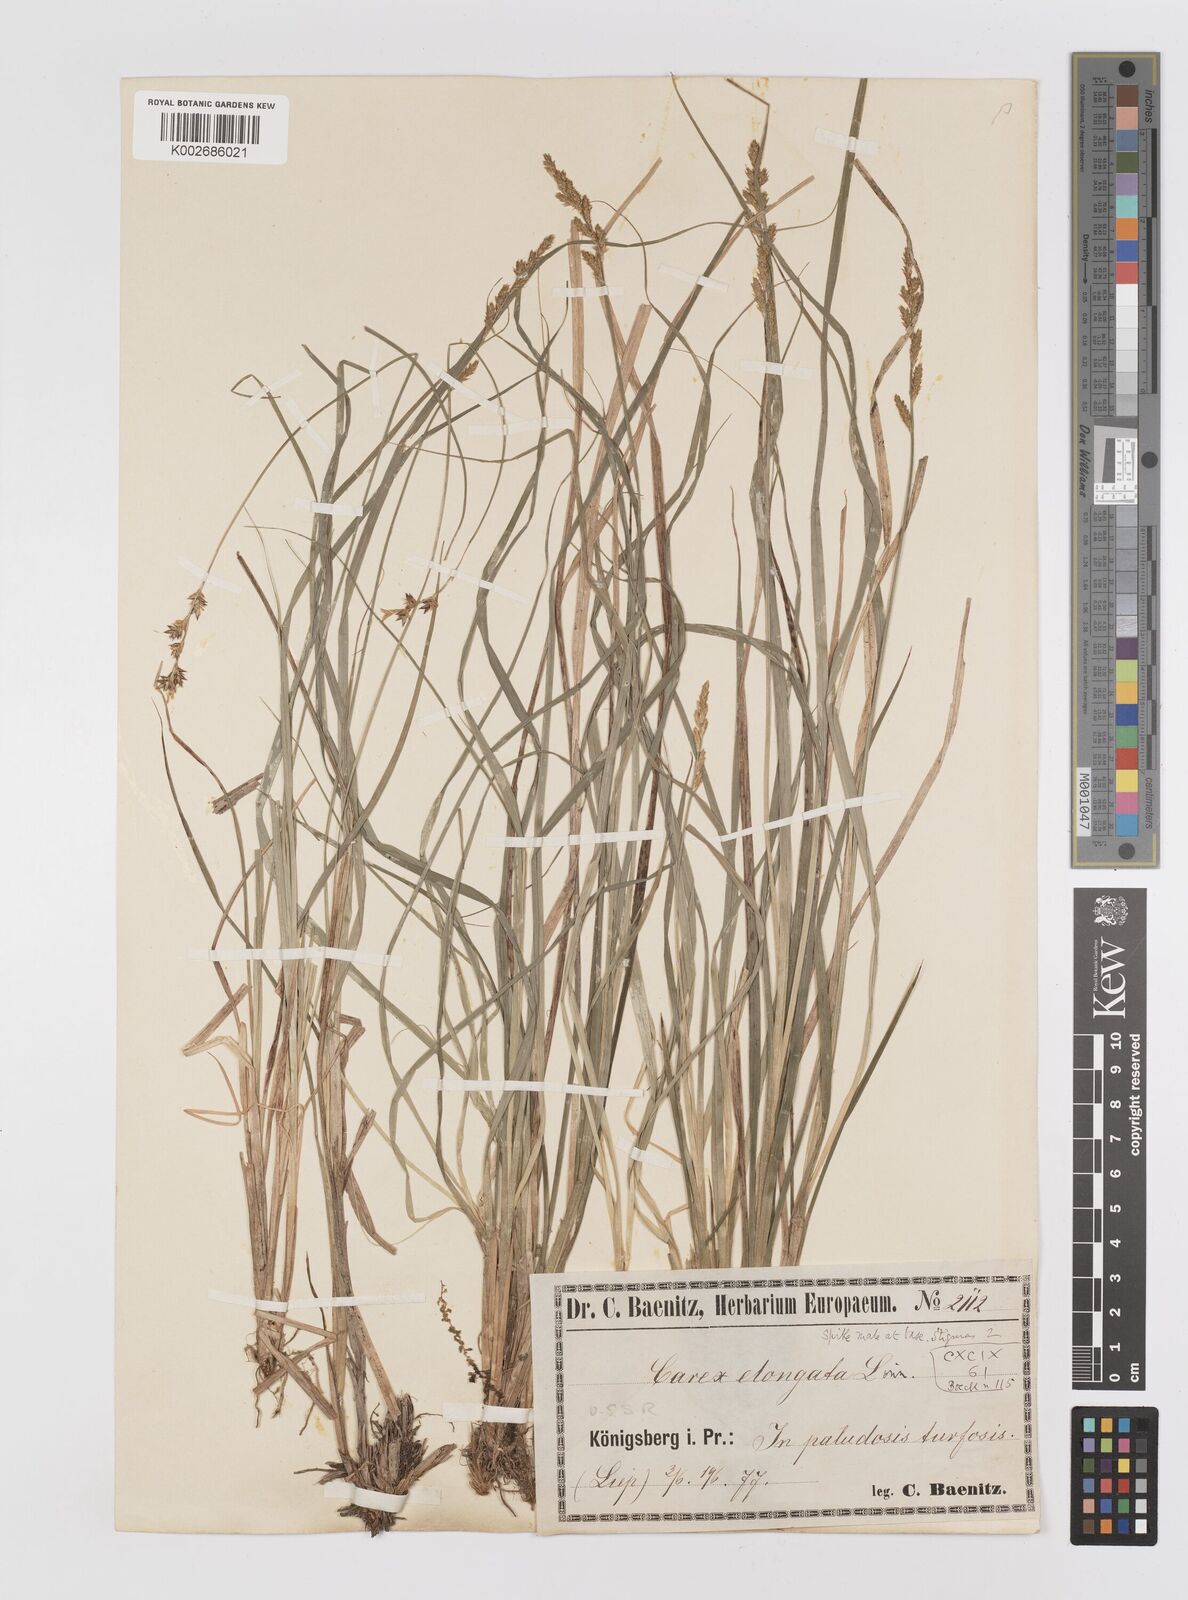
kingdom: Plantae
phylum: Tracheophyta
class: Liliopsida
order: Poales
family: Cyperaceae
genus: Carex
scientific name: Carex elongata
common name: Elongated sedge
